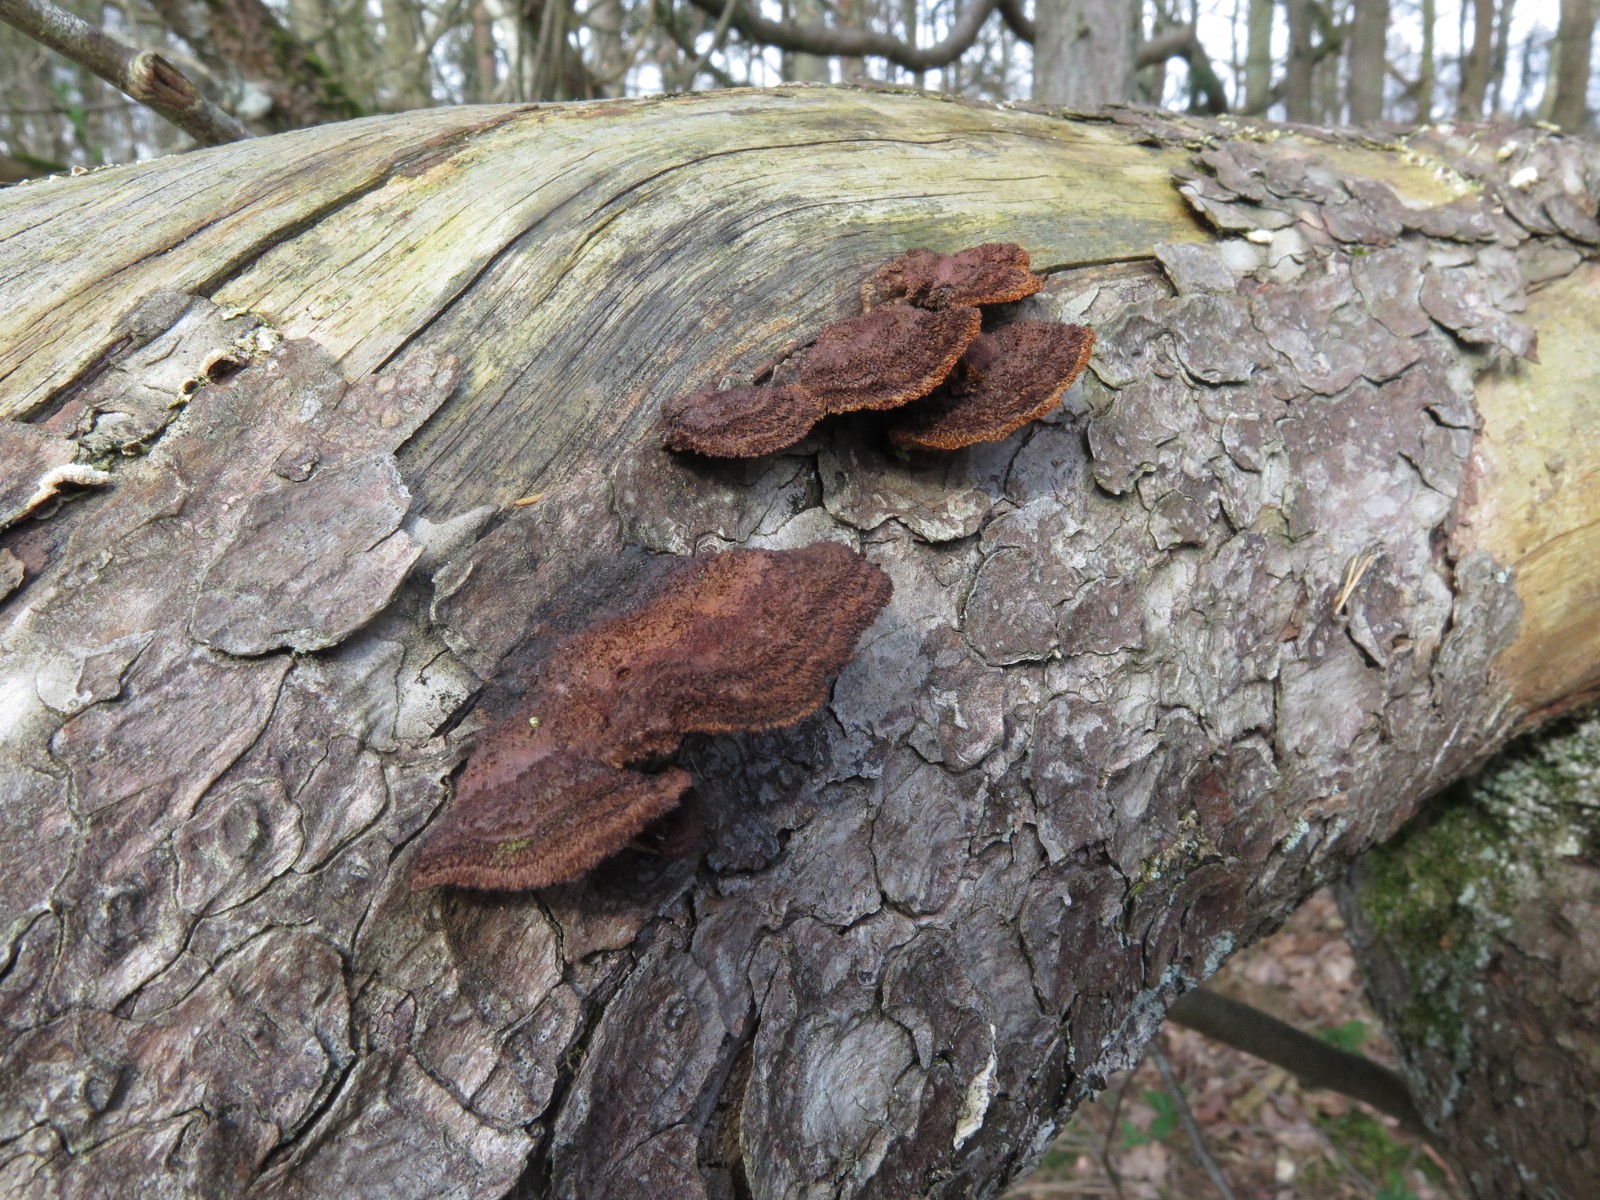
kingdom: Fungi
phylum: Basidiomycota
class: Agaricomycetes
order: Gloeophyllales
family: Gloeophyllaceae
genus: Gloeophyllum
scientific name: Gloeophyllum sepiarium
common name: fyrre-korkhat
